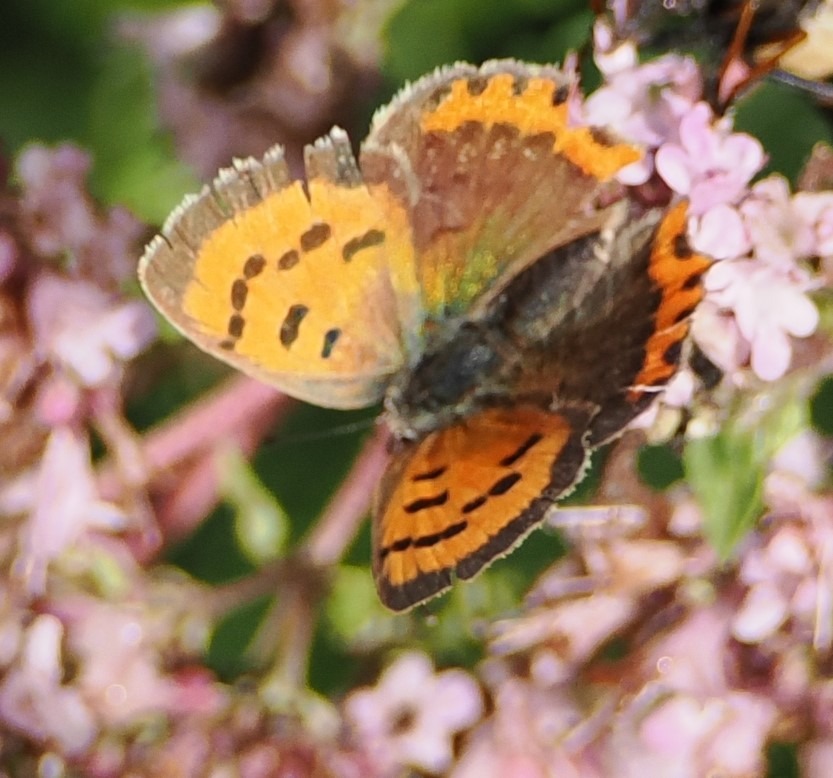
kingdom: Animalia
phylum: Arthropoda
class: Insecta
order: Lepidoptera
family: Lycaenidae
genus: Lycaena
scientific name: Lycaena phlaeas
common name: Lille ildfugl
